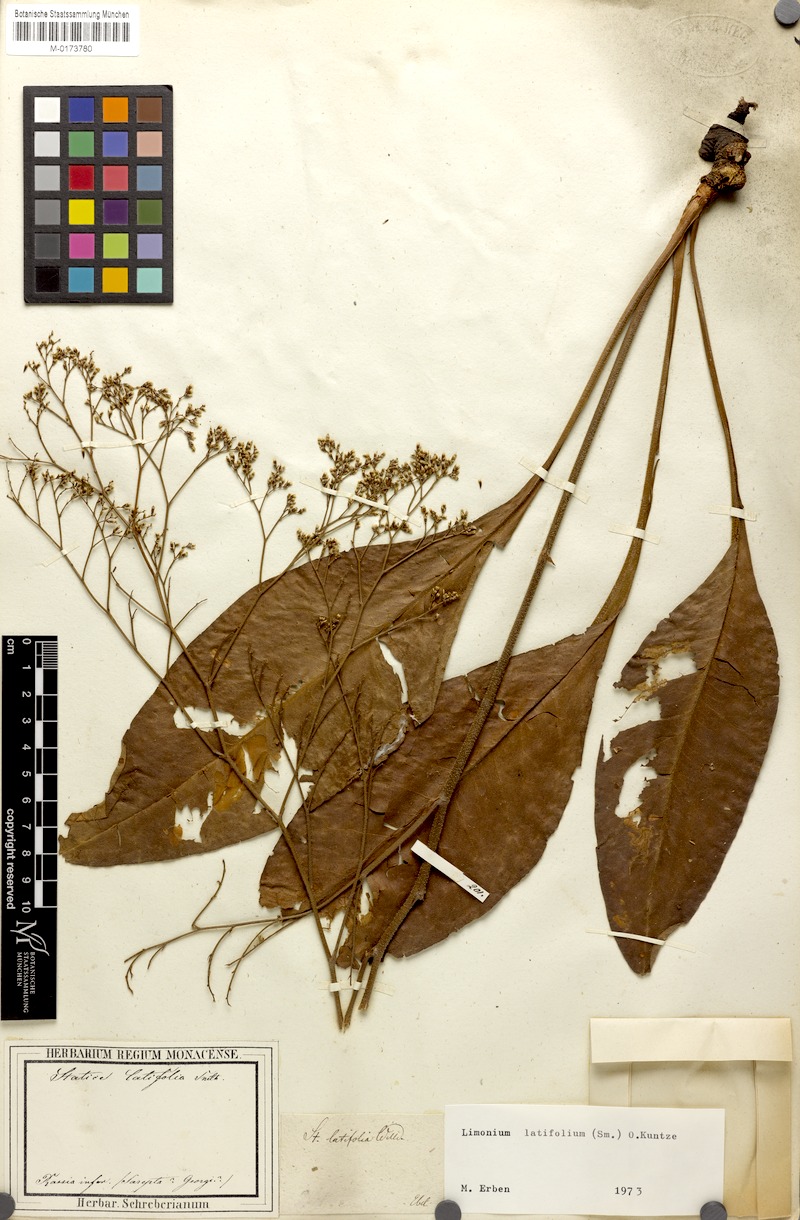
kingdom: Plantae
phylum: Tracheophyta
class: Magnoliopsida
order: Caryophyllales
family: Plumbaginaceae
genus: Limonium
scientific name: Limonium platyphyllum
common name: Florist's sea lavender
